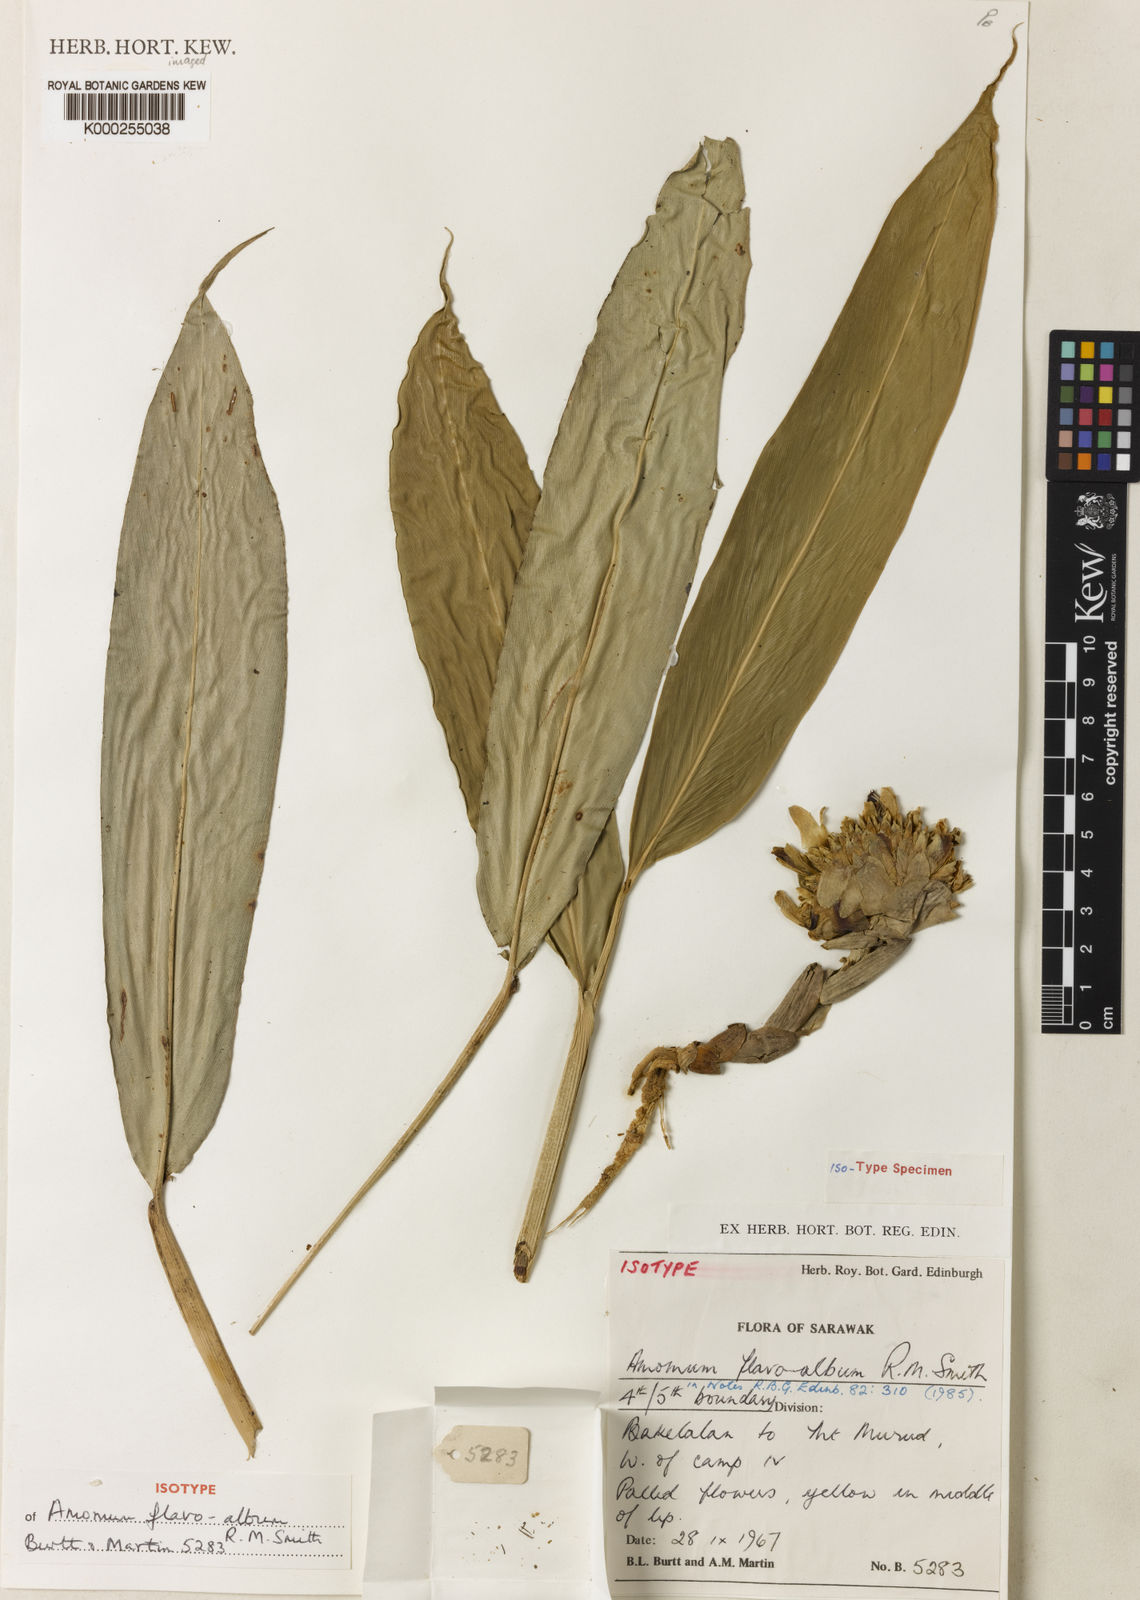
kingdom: Plantae
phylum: Tracheophyta
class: Liliopsida
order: Zingiberales
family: Zingiberaceae
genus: Sundamomum
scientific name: Sundamomum flavoalbum
